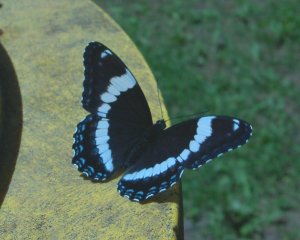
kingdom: Animalia
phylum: Arthropoda
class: Insecta
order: Lepidoptera
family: Nymphalidae
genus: Limenitis
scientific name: Limenitis arthemis
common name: Red-spotted Admiral
